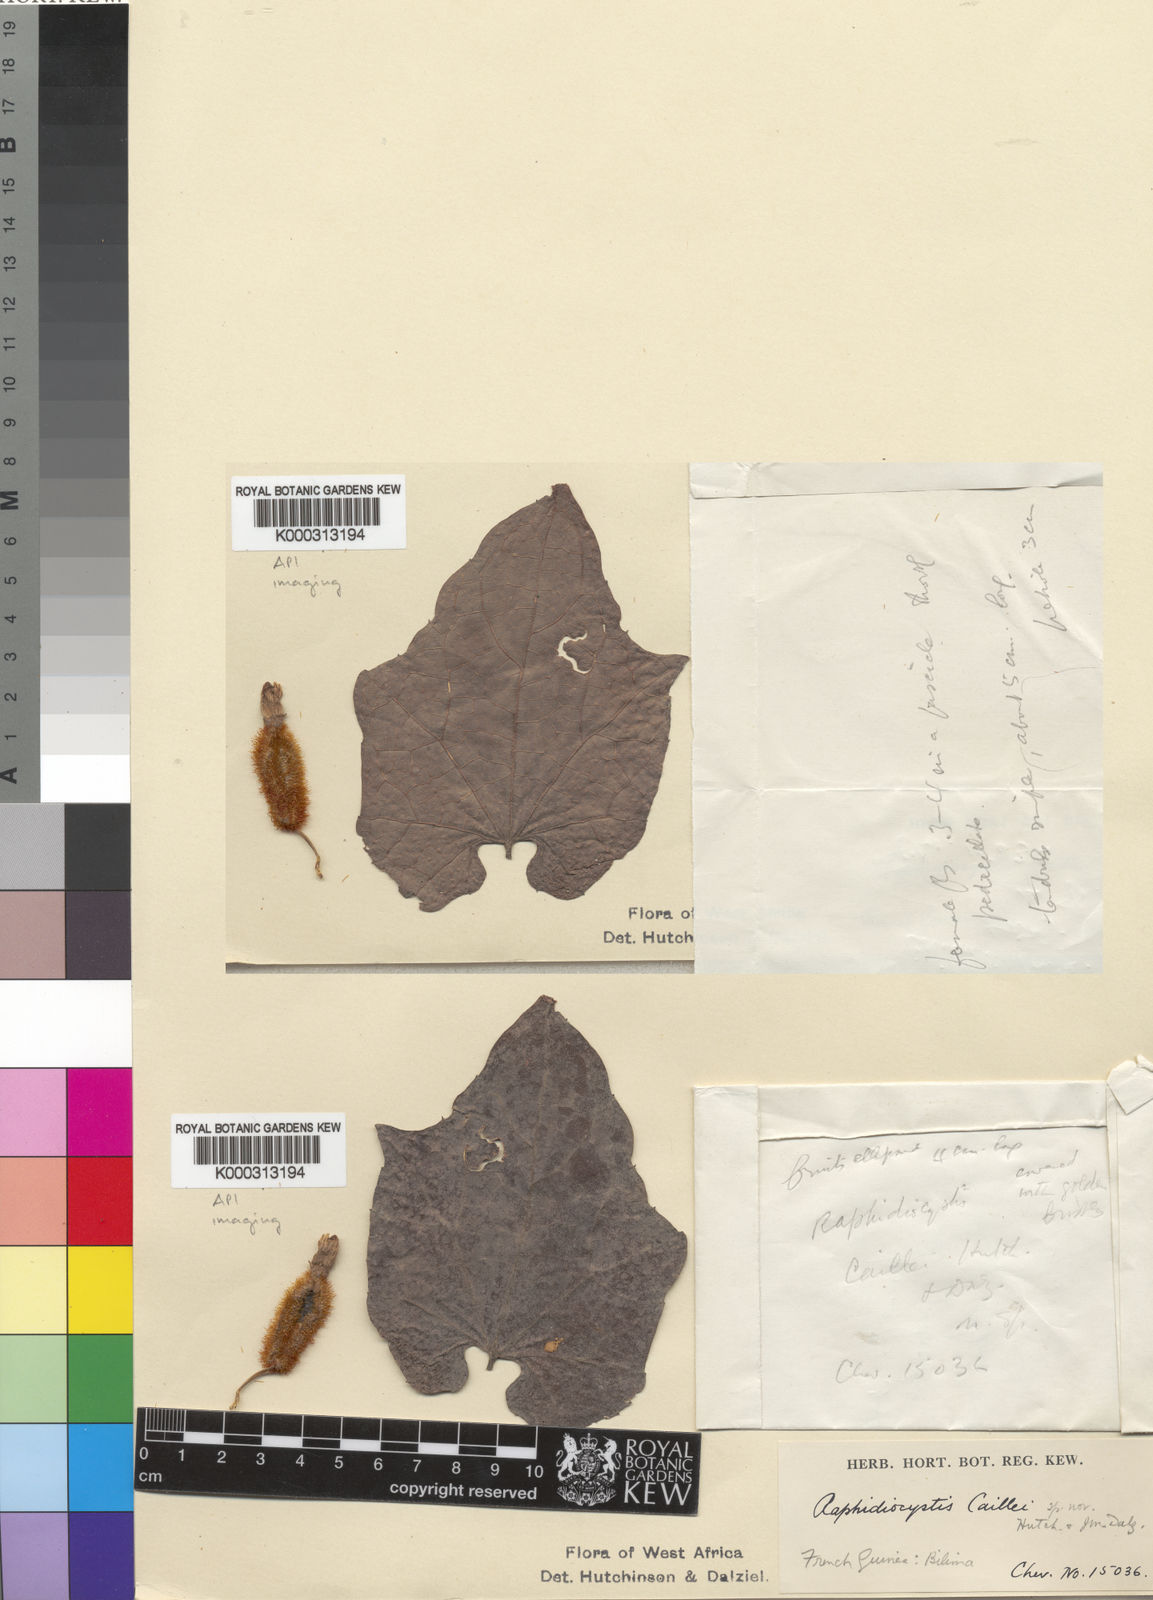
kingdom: Plantae
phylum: Tracheophyta
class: Magnoliopsida
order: Cucurbitales
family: Cucurbitaceae
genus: Raphidiocystis
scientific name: Raphidiocystis chrysocoma
